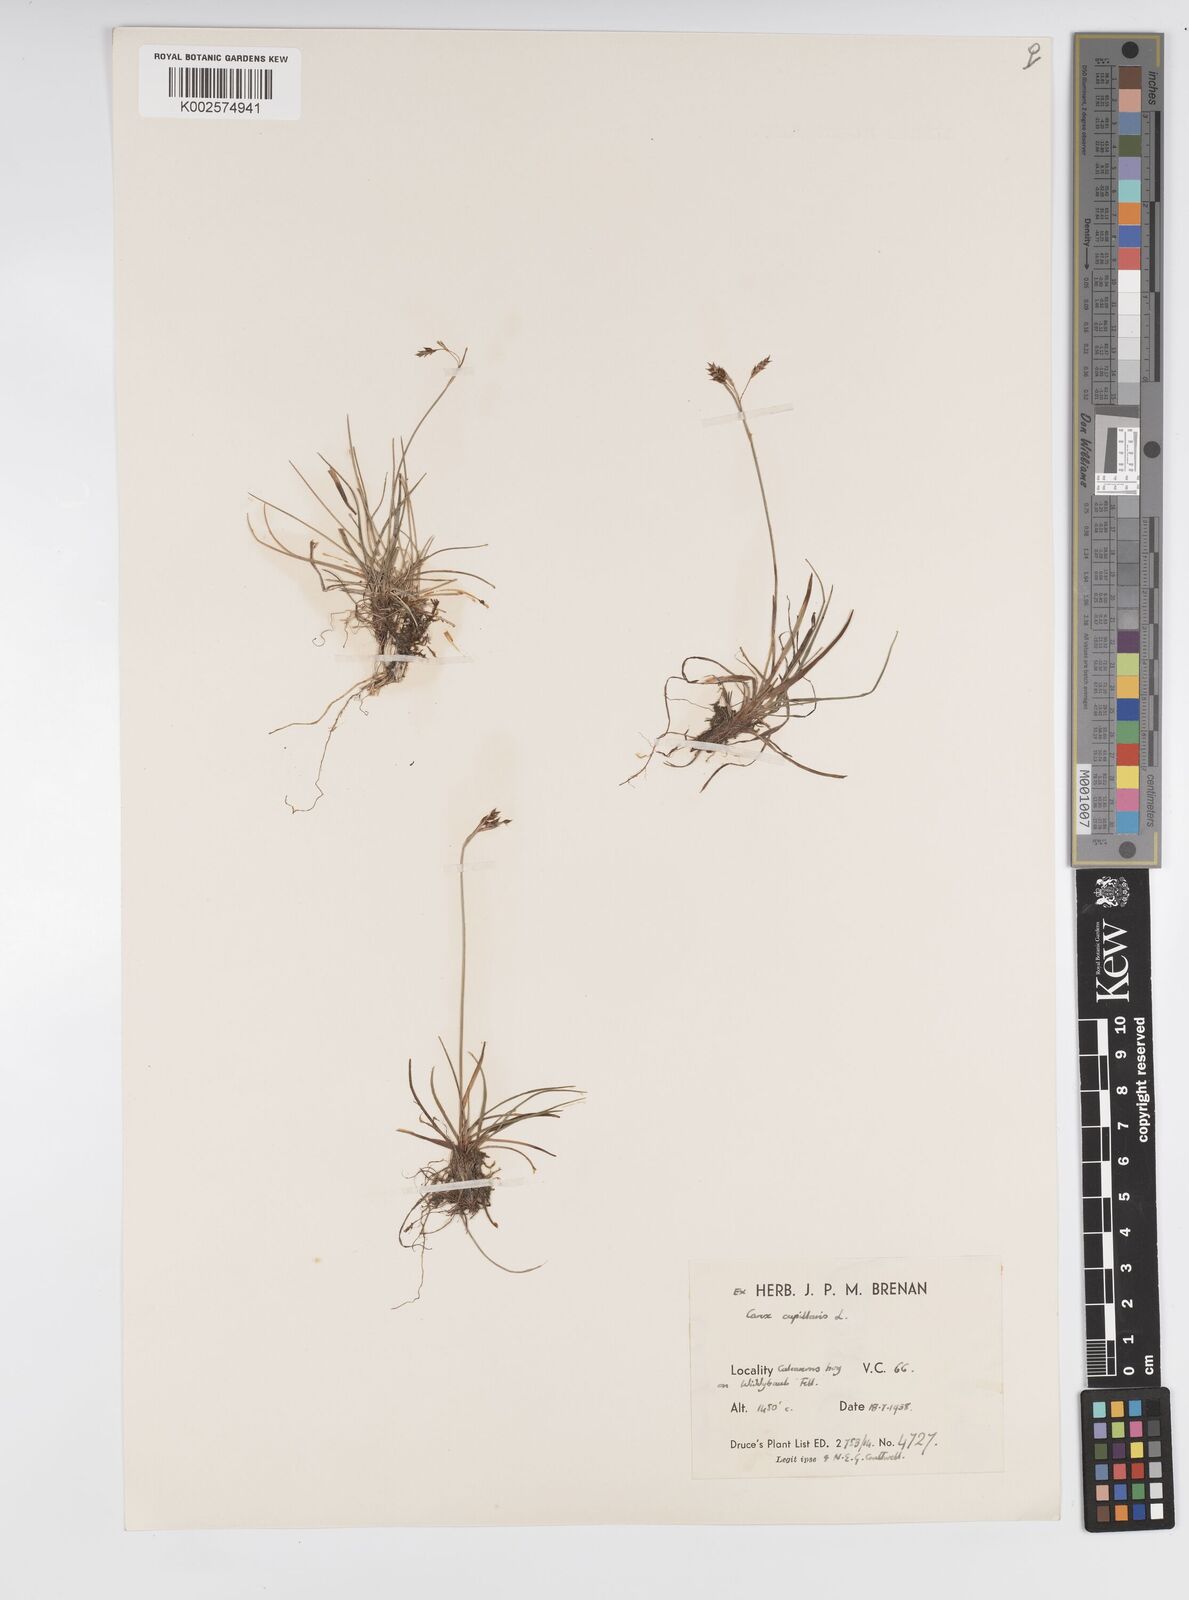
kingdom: Plantae
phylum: Tracheophyta
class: Liliopsida
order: Poales
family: Cyperaceae
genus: Carex
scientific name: Carex capillaris
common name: Hair sedge
